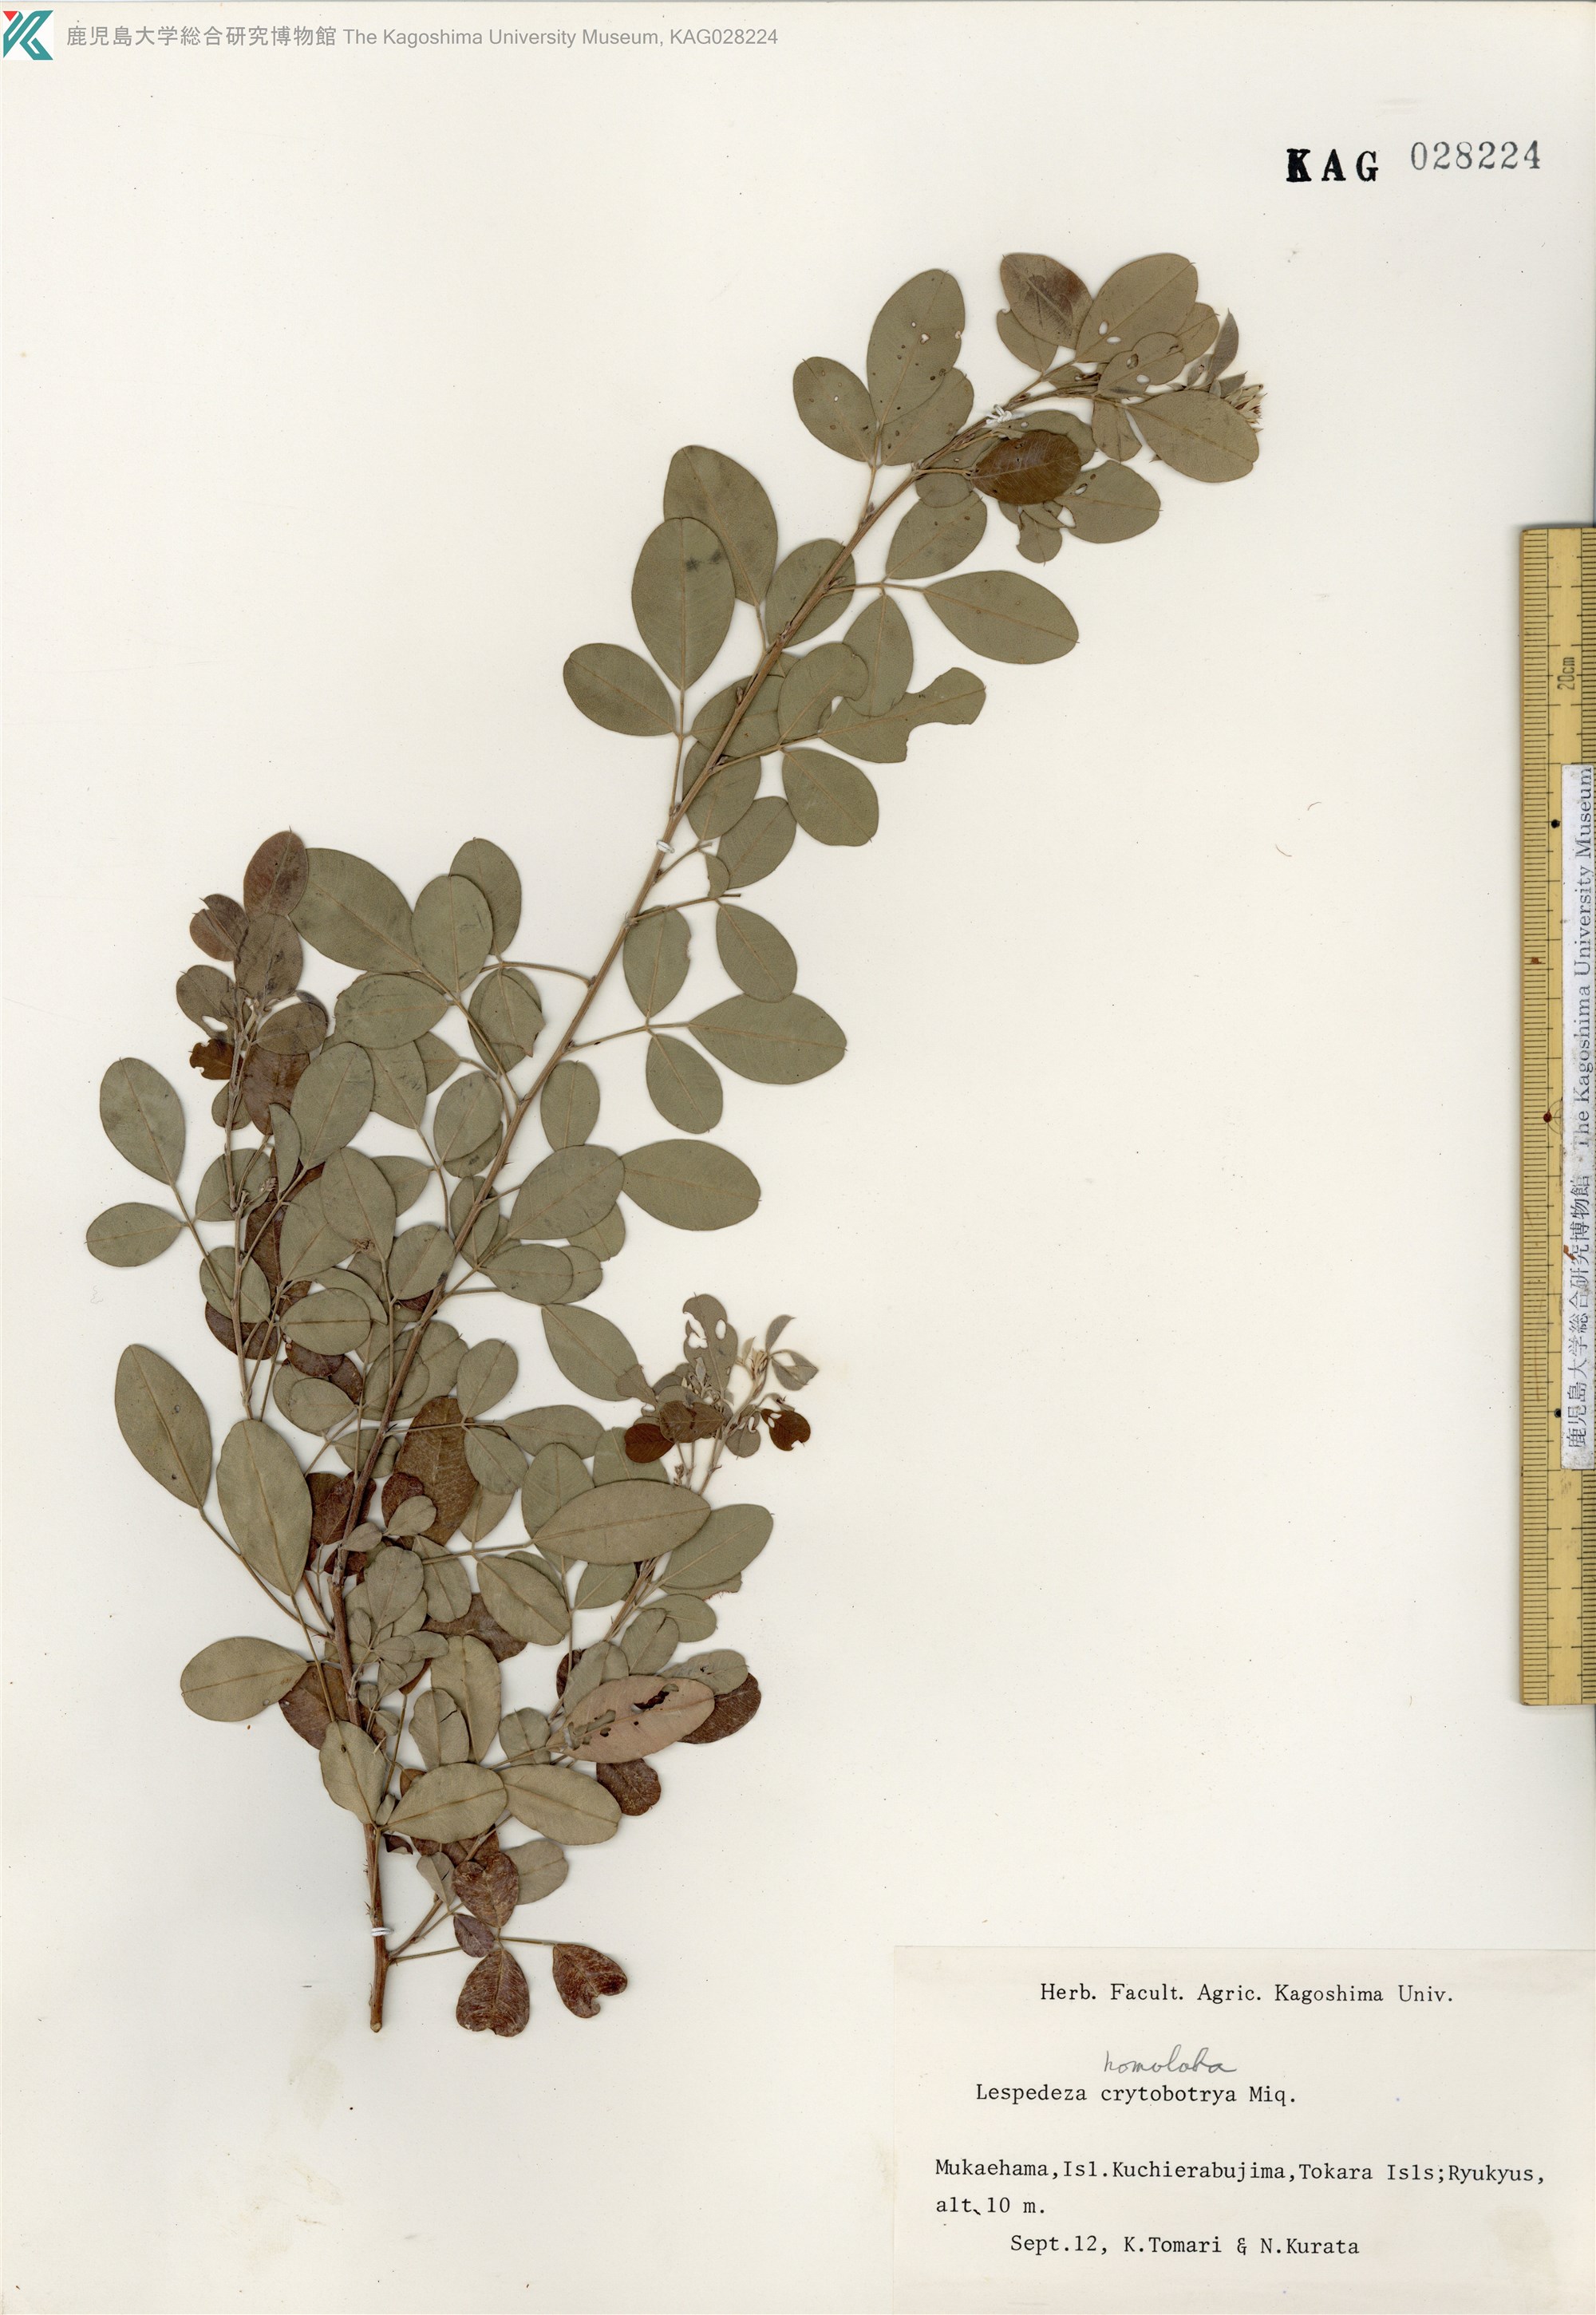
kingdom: Plantae
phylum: Tracheophyta
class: Magnoliopsida
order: Fabales
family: Fabaceae
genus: Lespedeza
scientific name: Lespedeza cyrtobotrya
